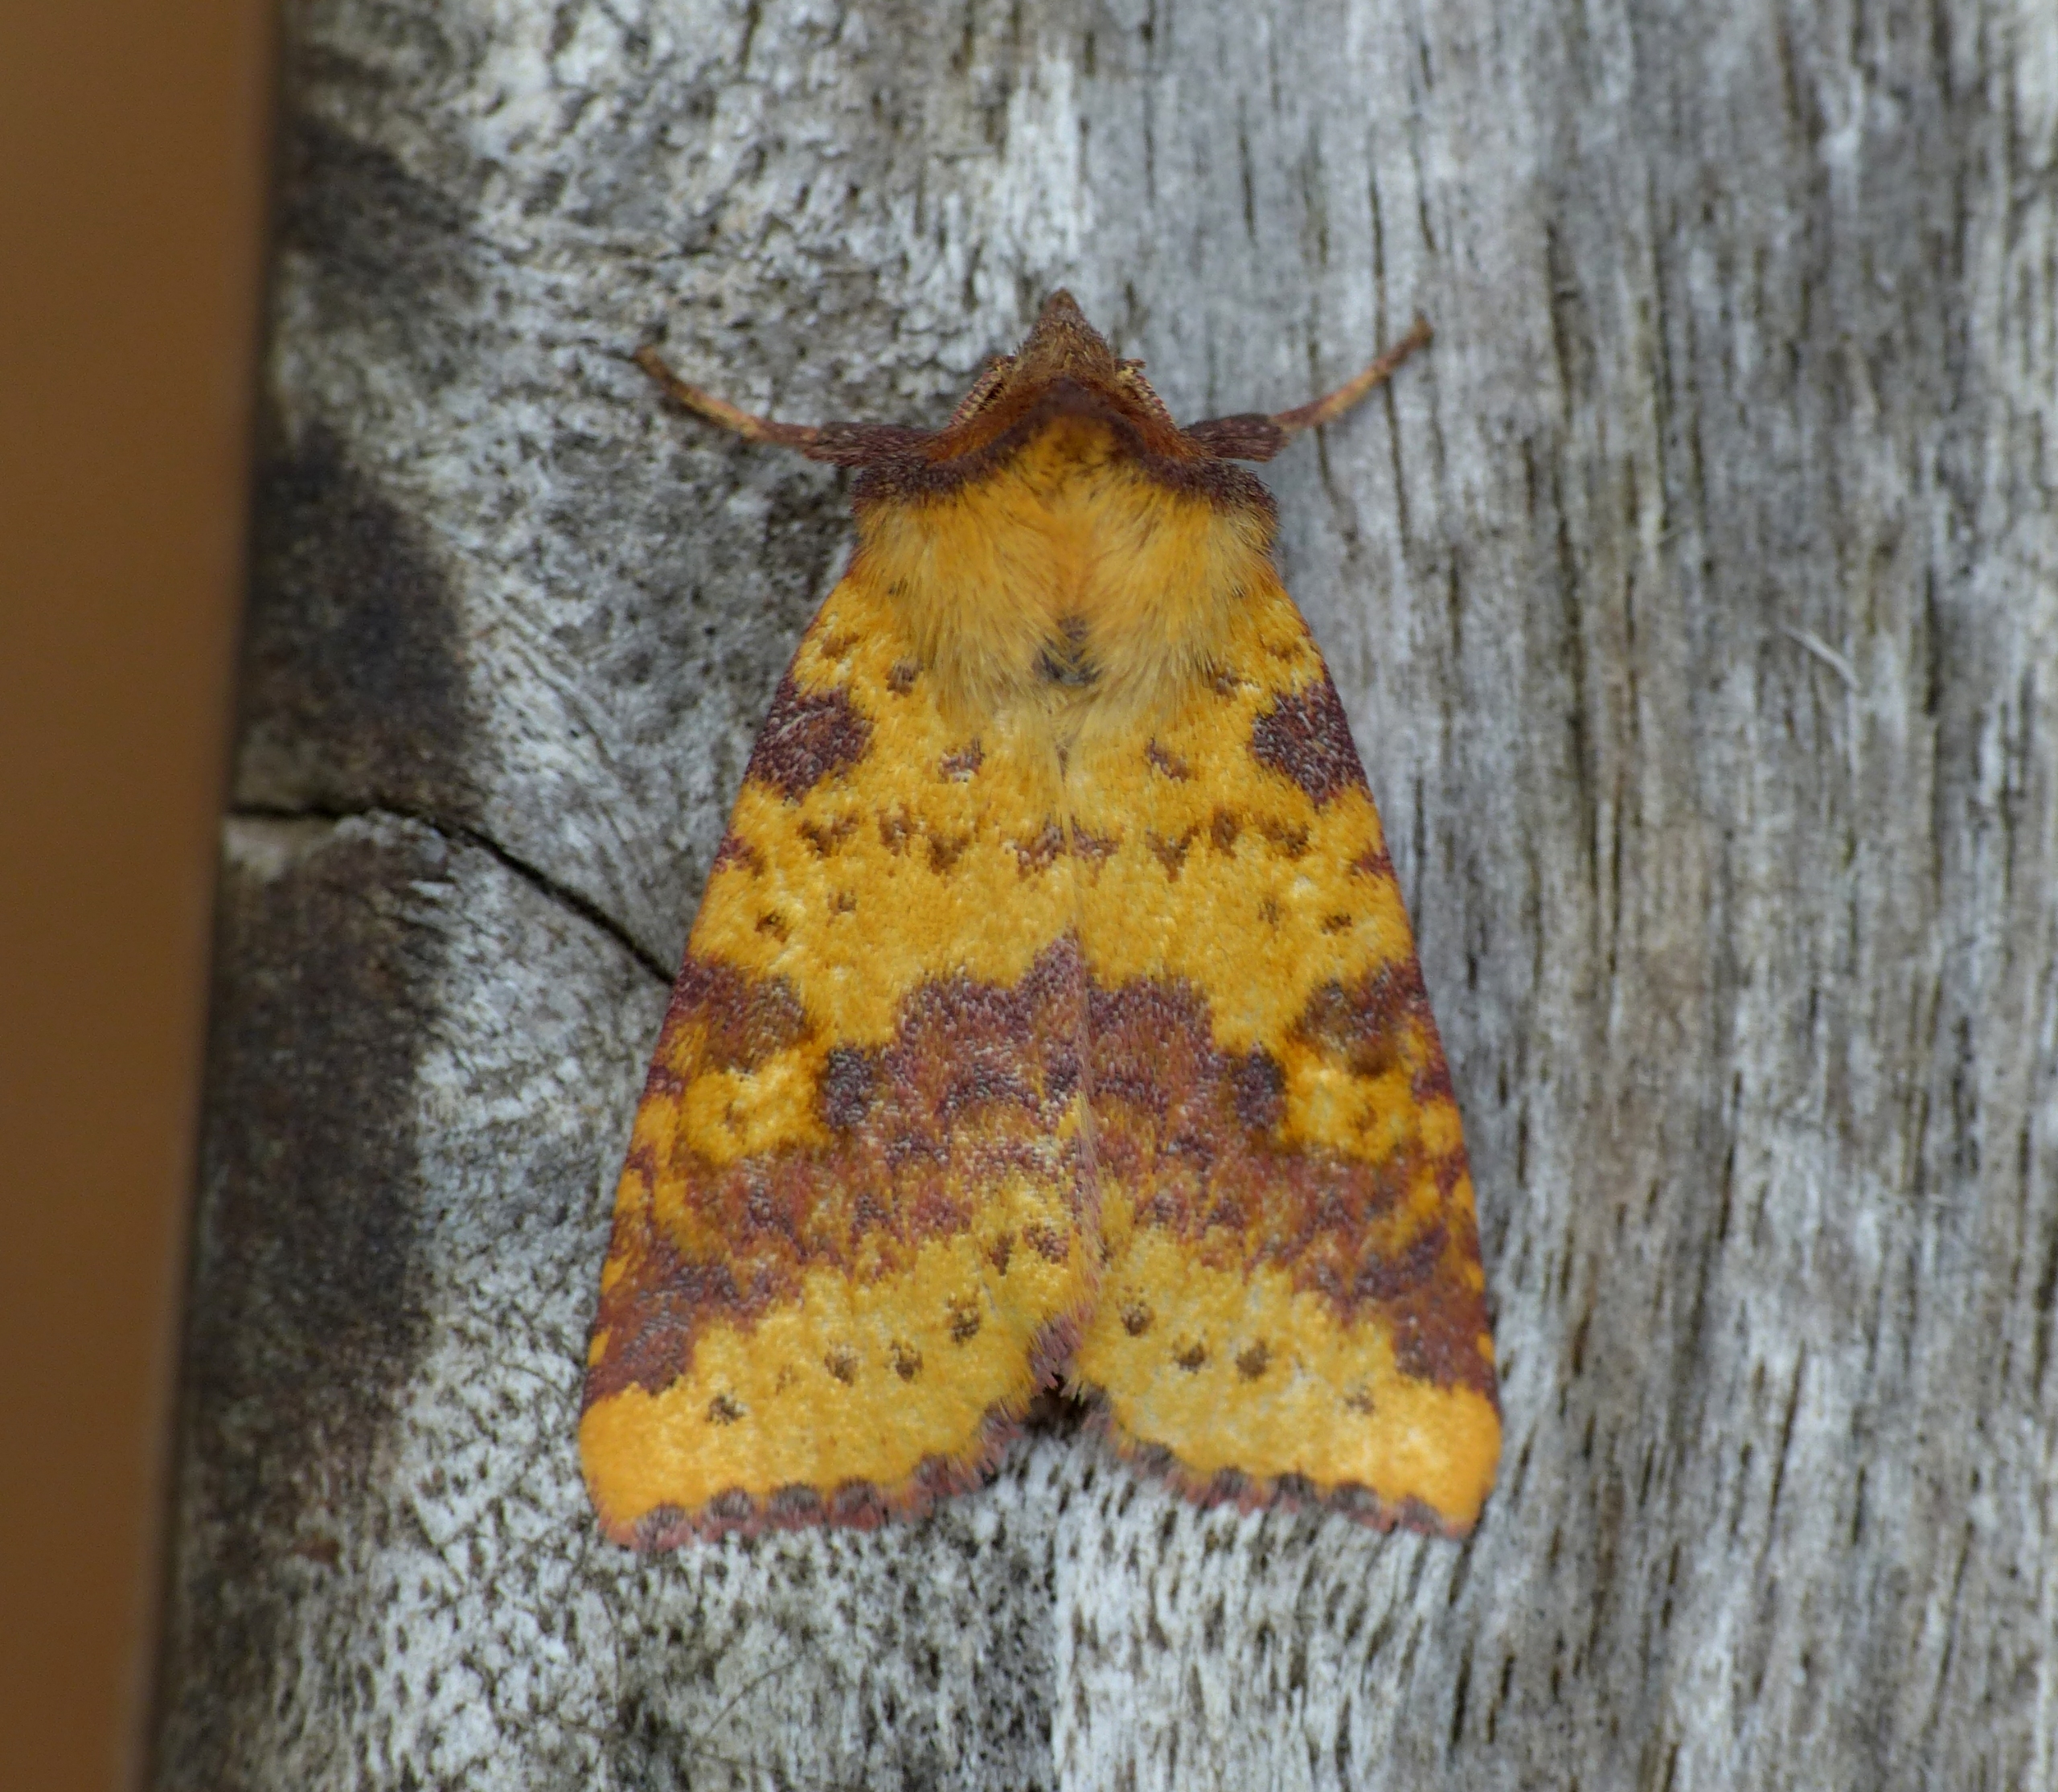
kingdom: Animalia
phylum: Arthropoda
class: Insecta
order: Lepidoptera
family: Noctuidae
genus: Xanthia
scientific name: Xanthia togata
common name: Toga-septemberugle
